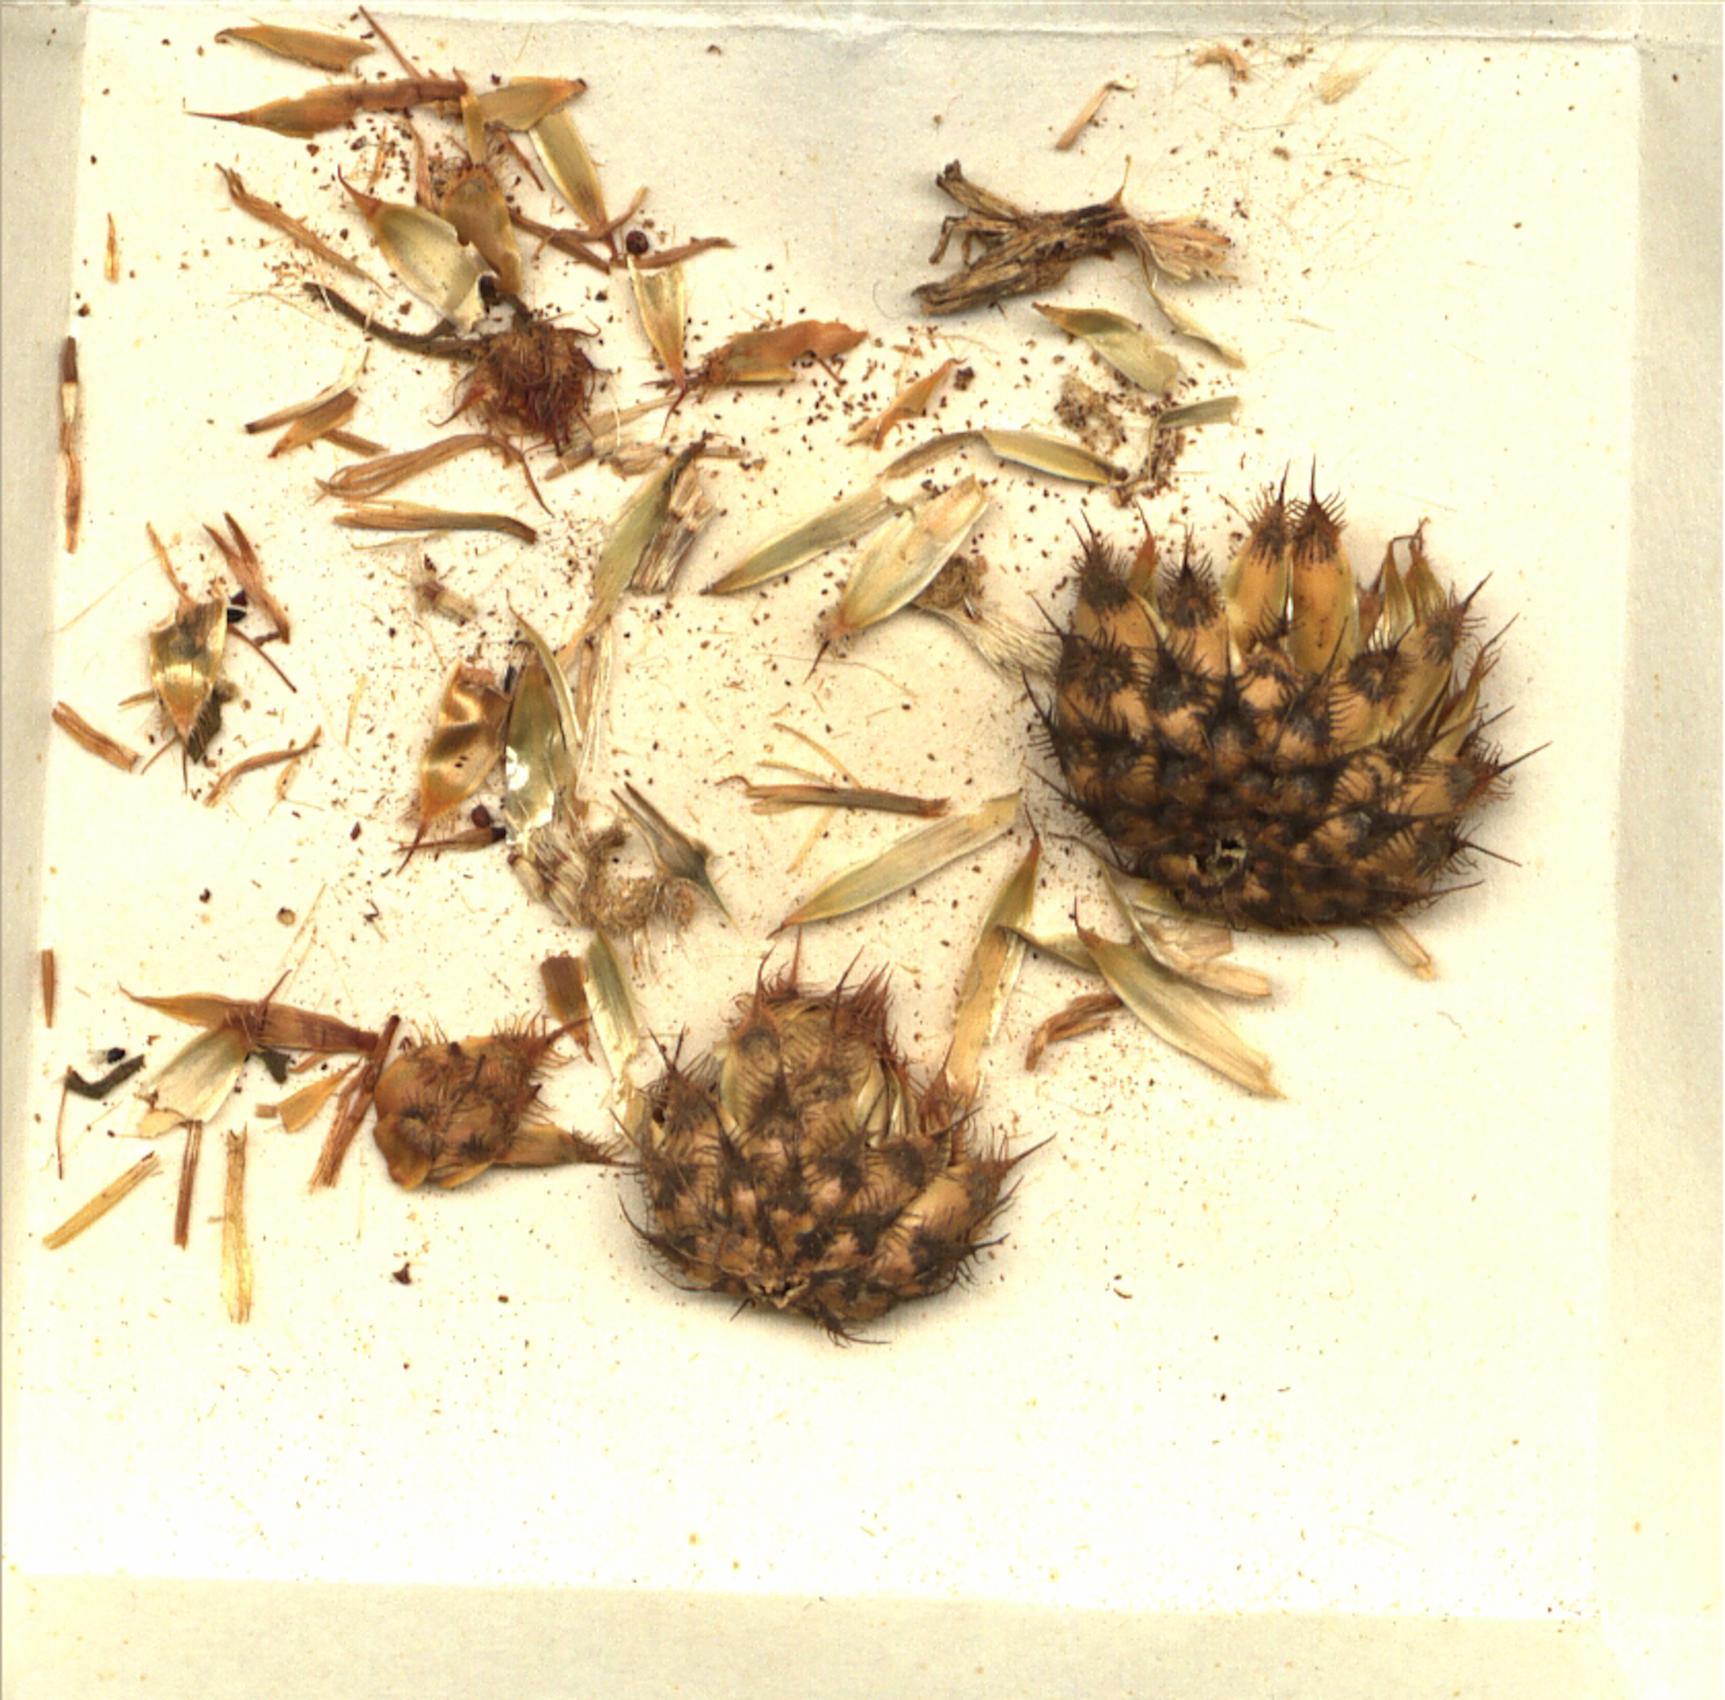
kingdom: Plantae
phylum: Tracheophyta
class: Magnoliopsida
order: Asterales
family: Asteraceae
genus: Stizolophus
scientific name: Stizolophus kermanensis
